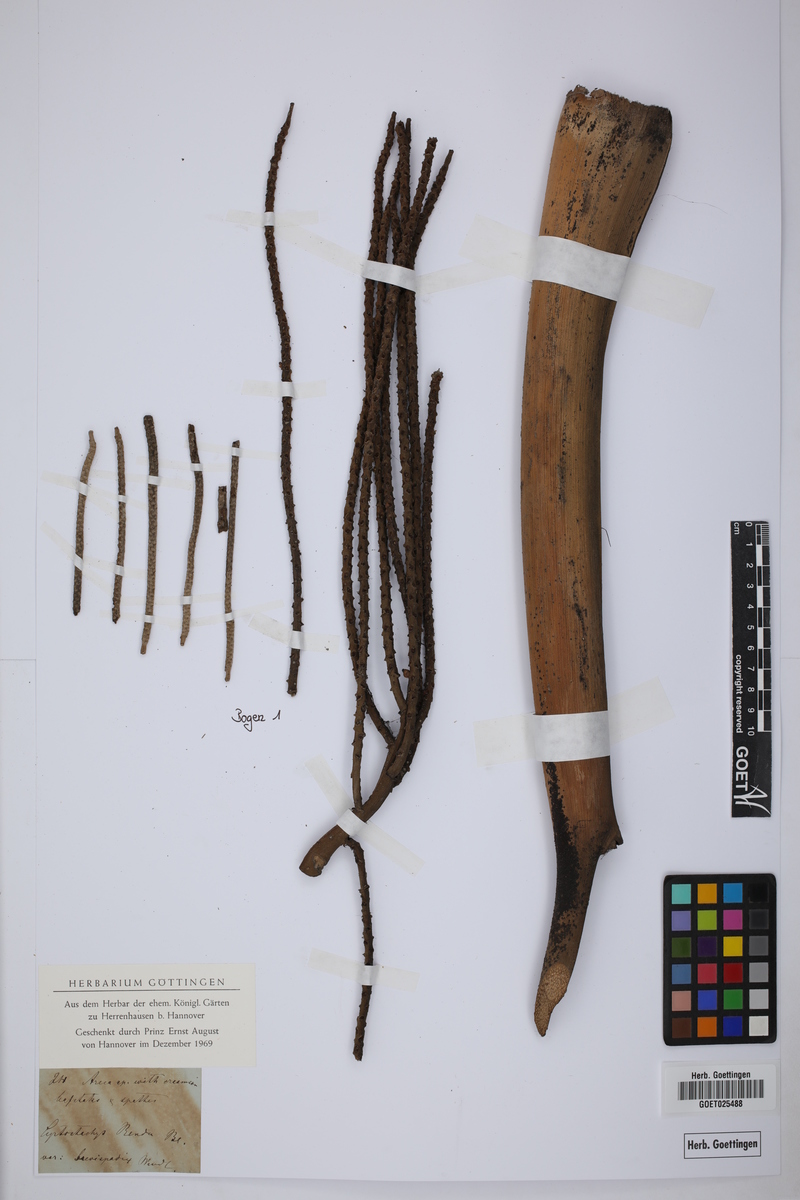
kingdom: Plantae
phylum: Tracheophyta
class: Liliopsida
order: Arecales
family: Arecaceae
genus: Cyrtostachys
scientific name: Cyrtostachys renda
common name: Lipstick palm
